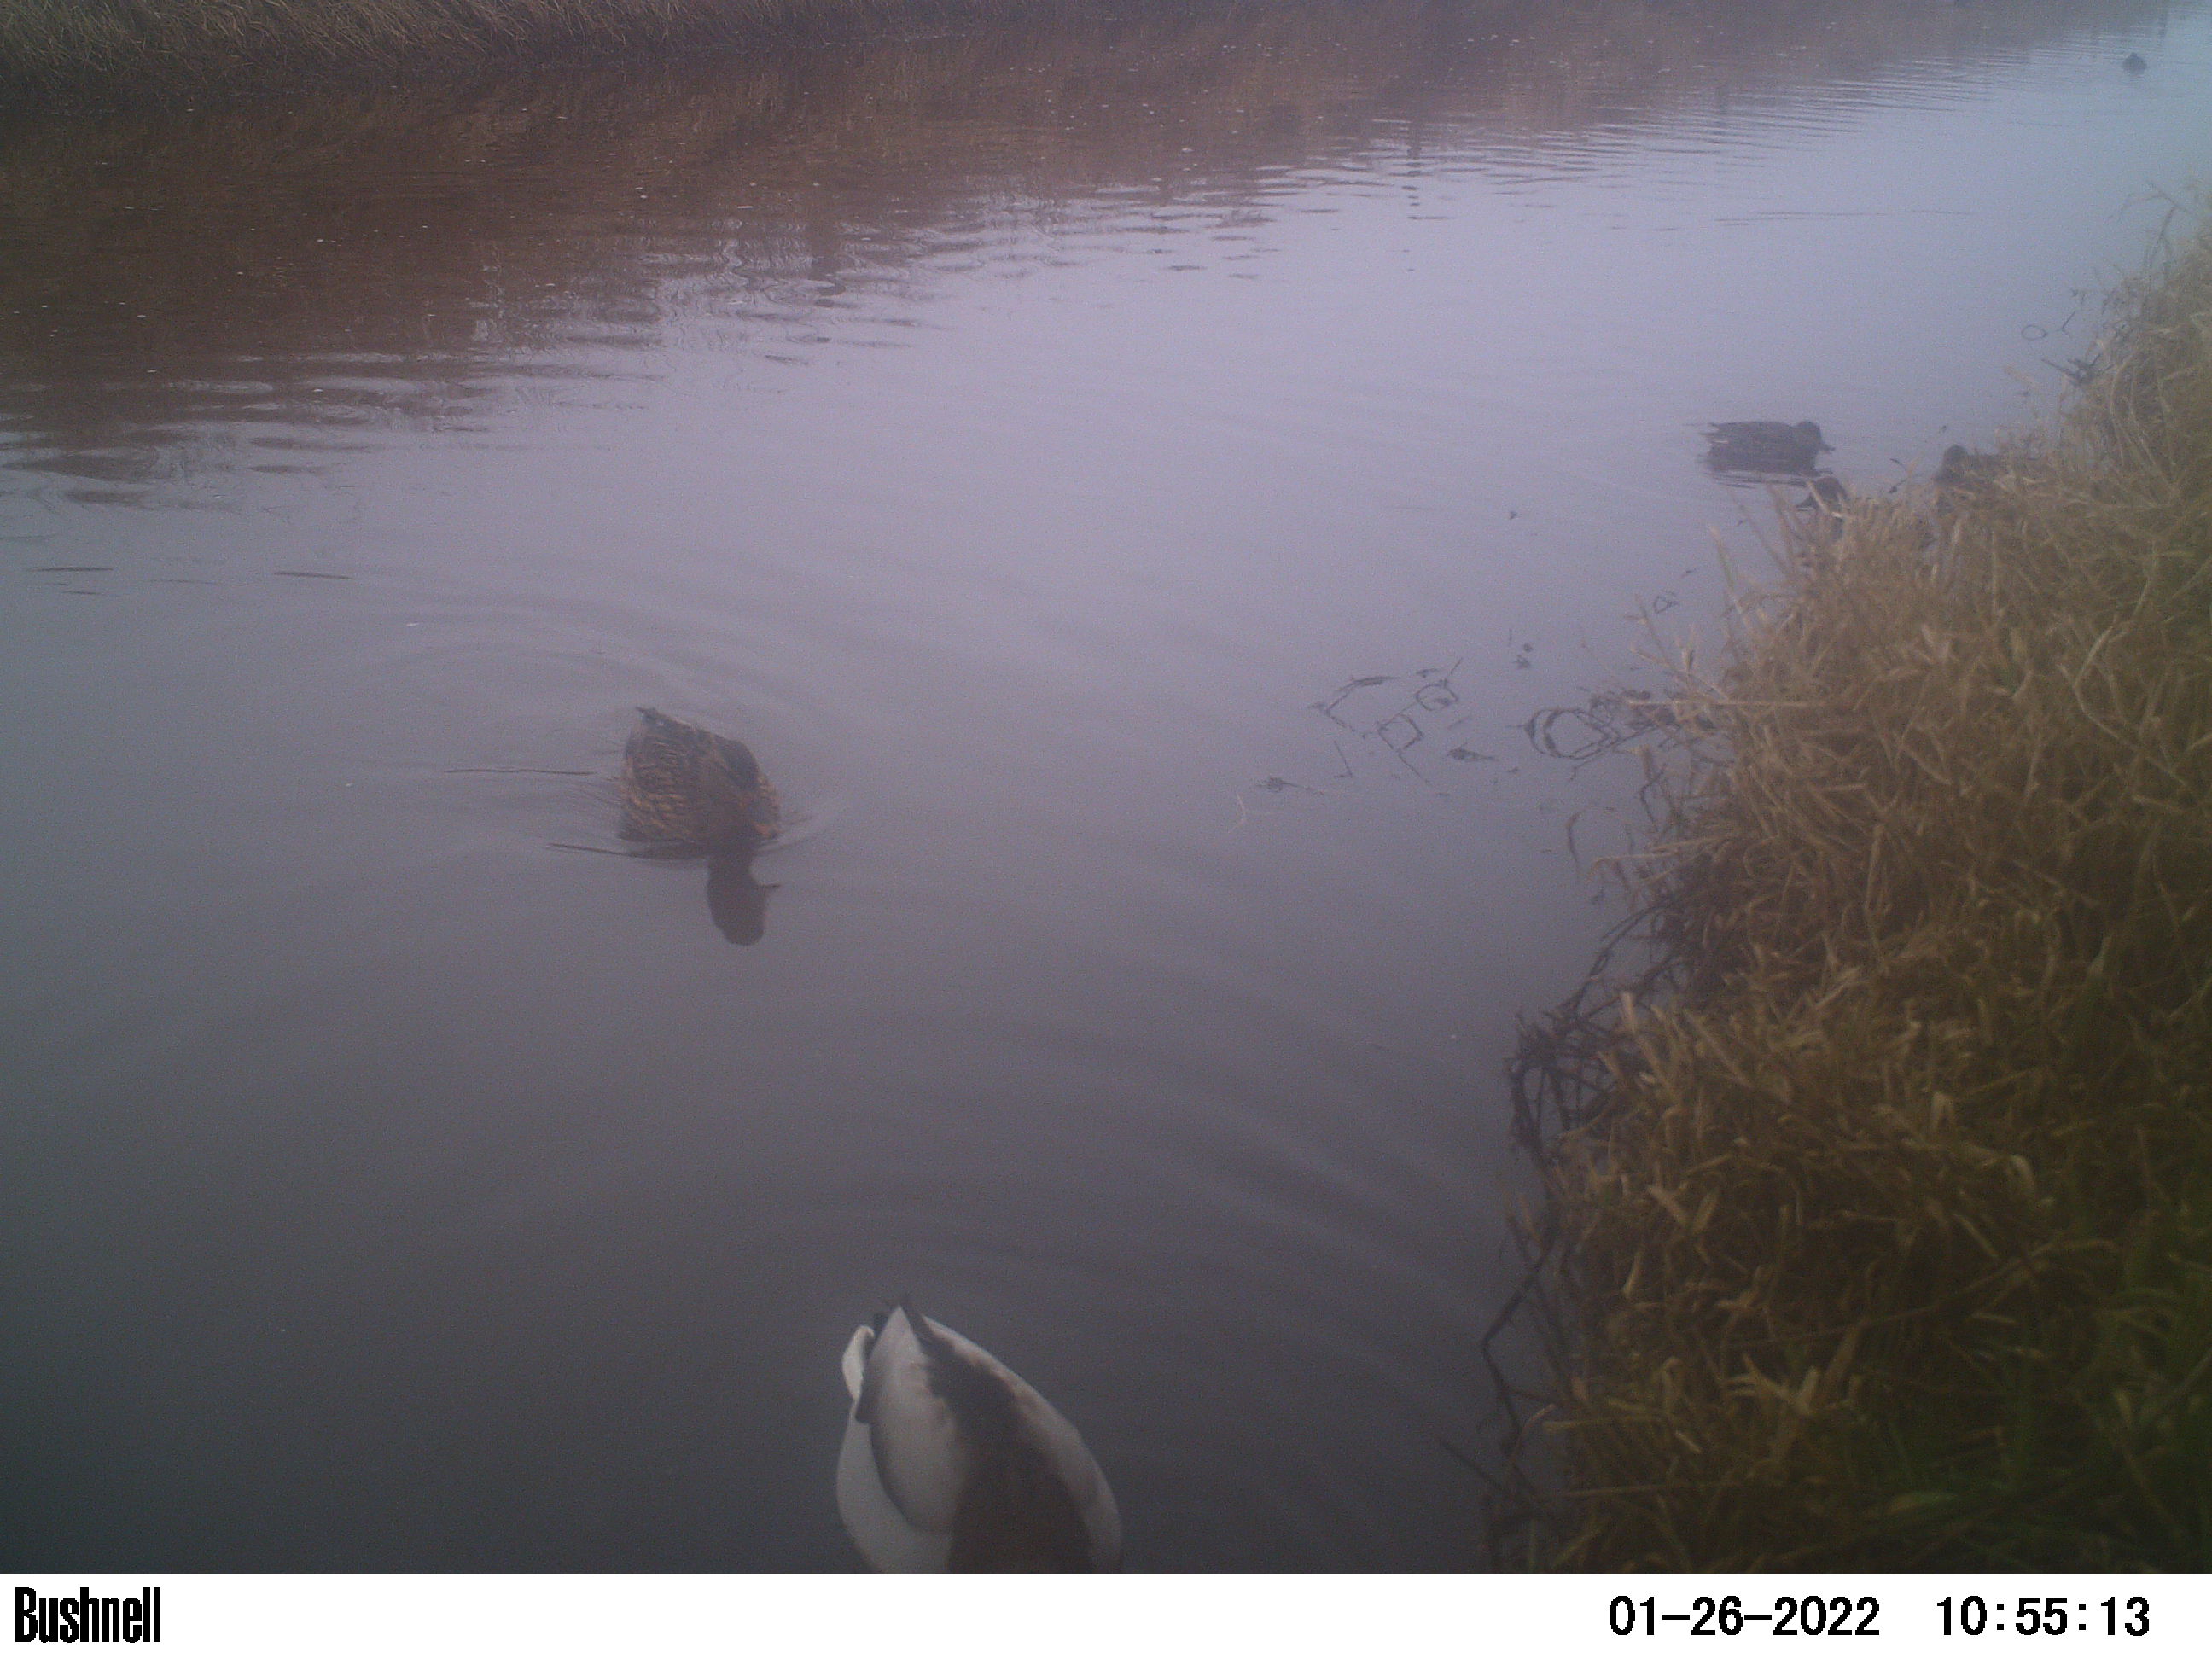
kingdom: Animalia
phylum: Chordata
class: Aves
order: Anseriformes
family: Anatidae
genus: Anas
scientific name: Anas
